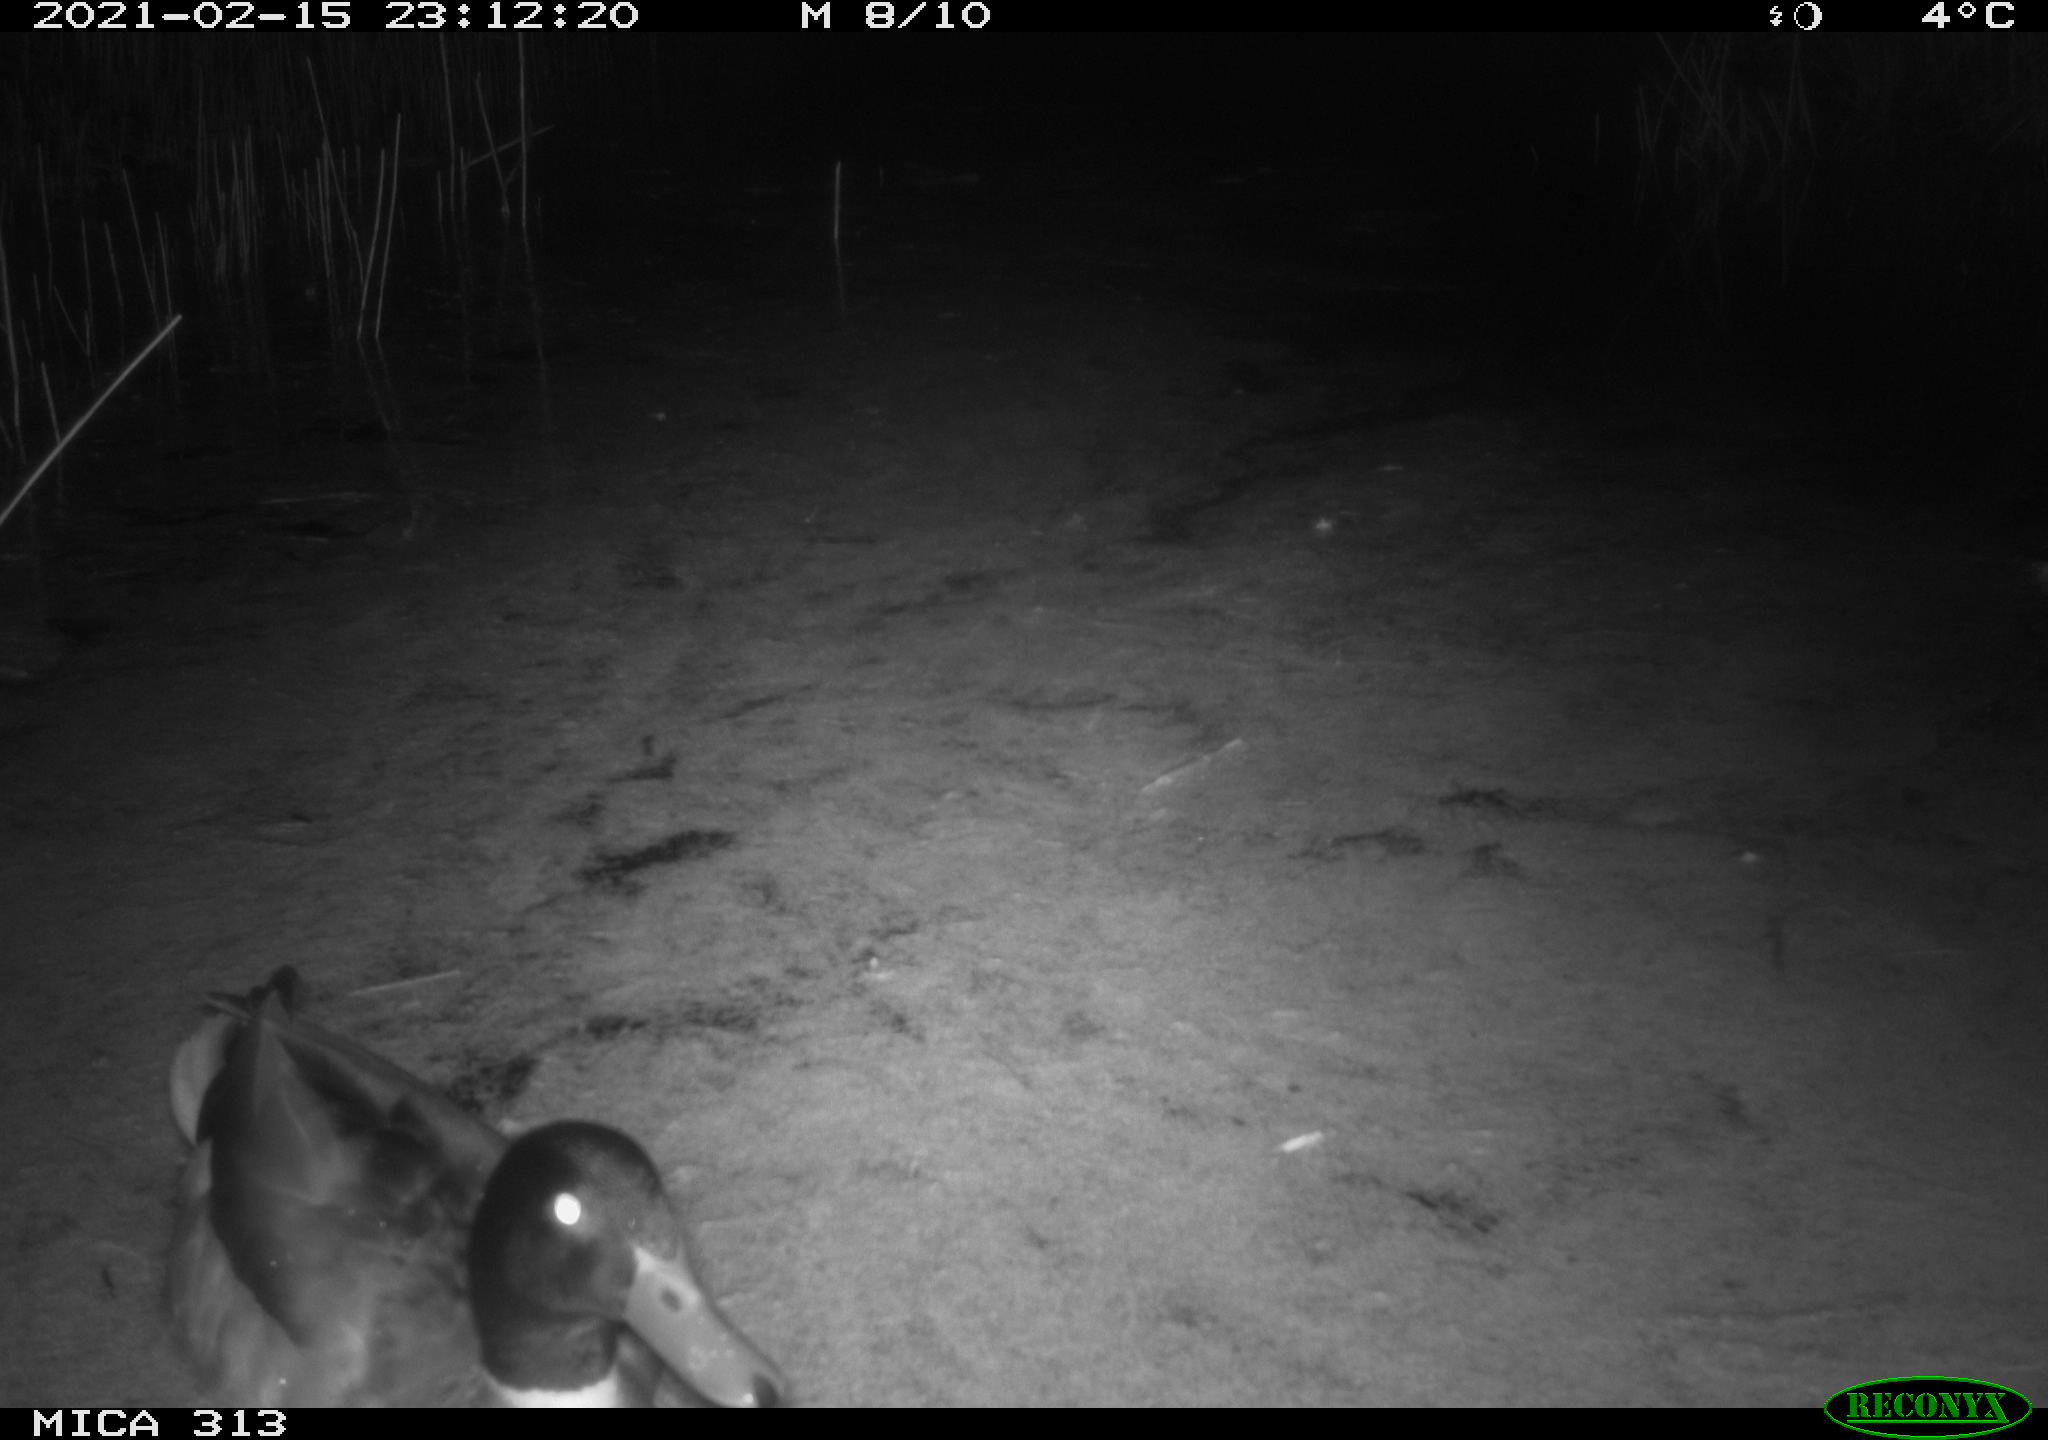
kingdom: Animalia
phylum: Chordata
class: Aves
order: Anseriformes
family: Anatidae
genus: Anas
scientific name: Anas
